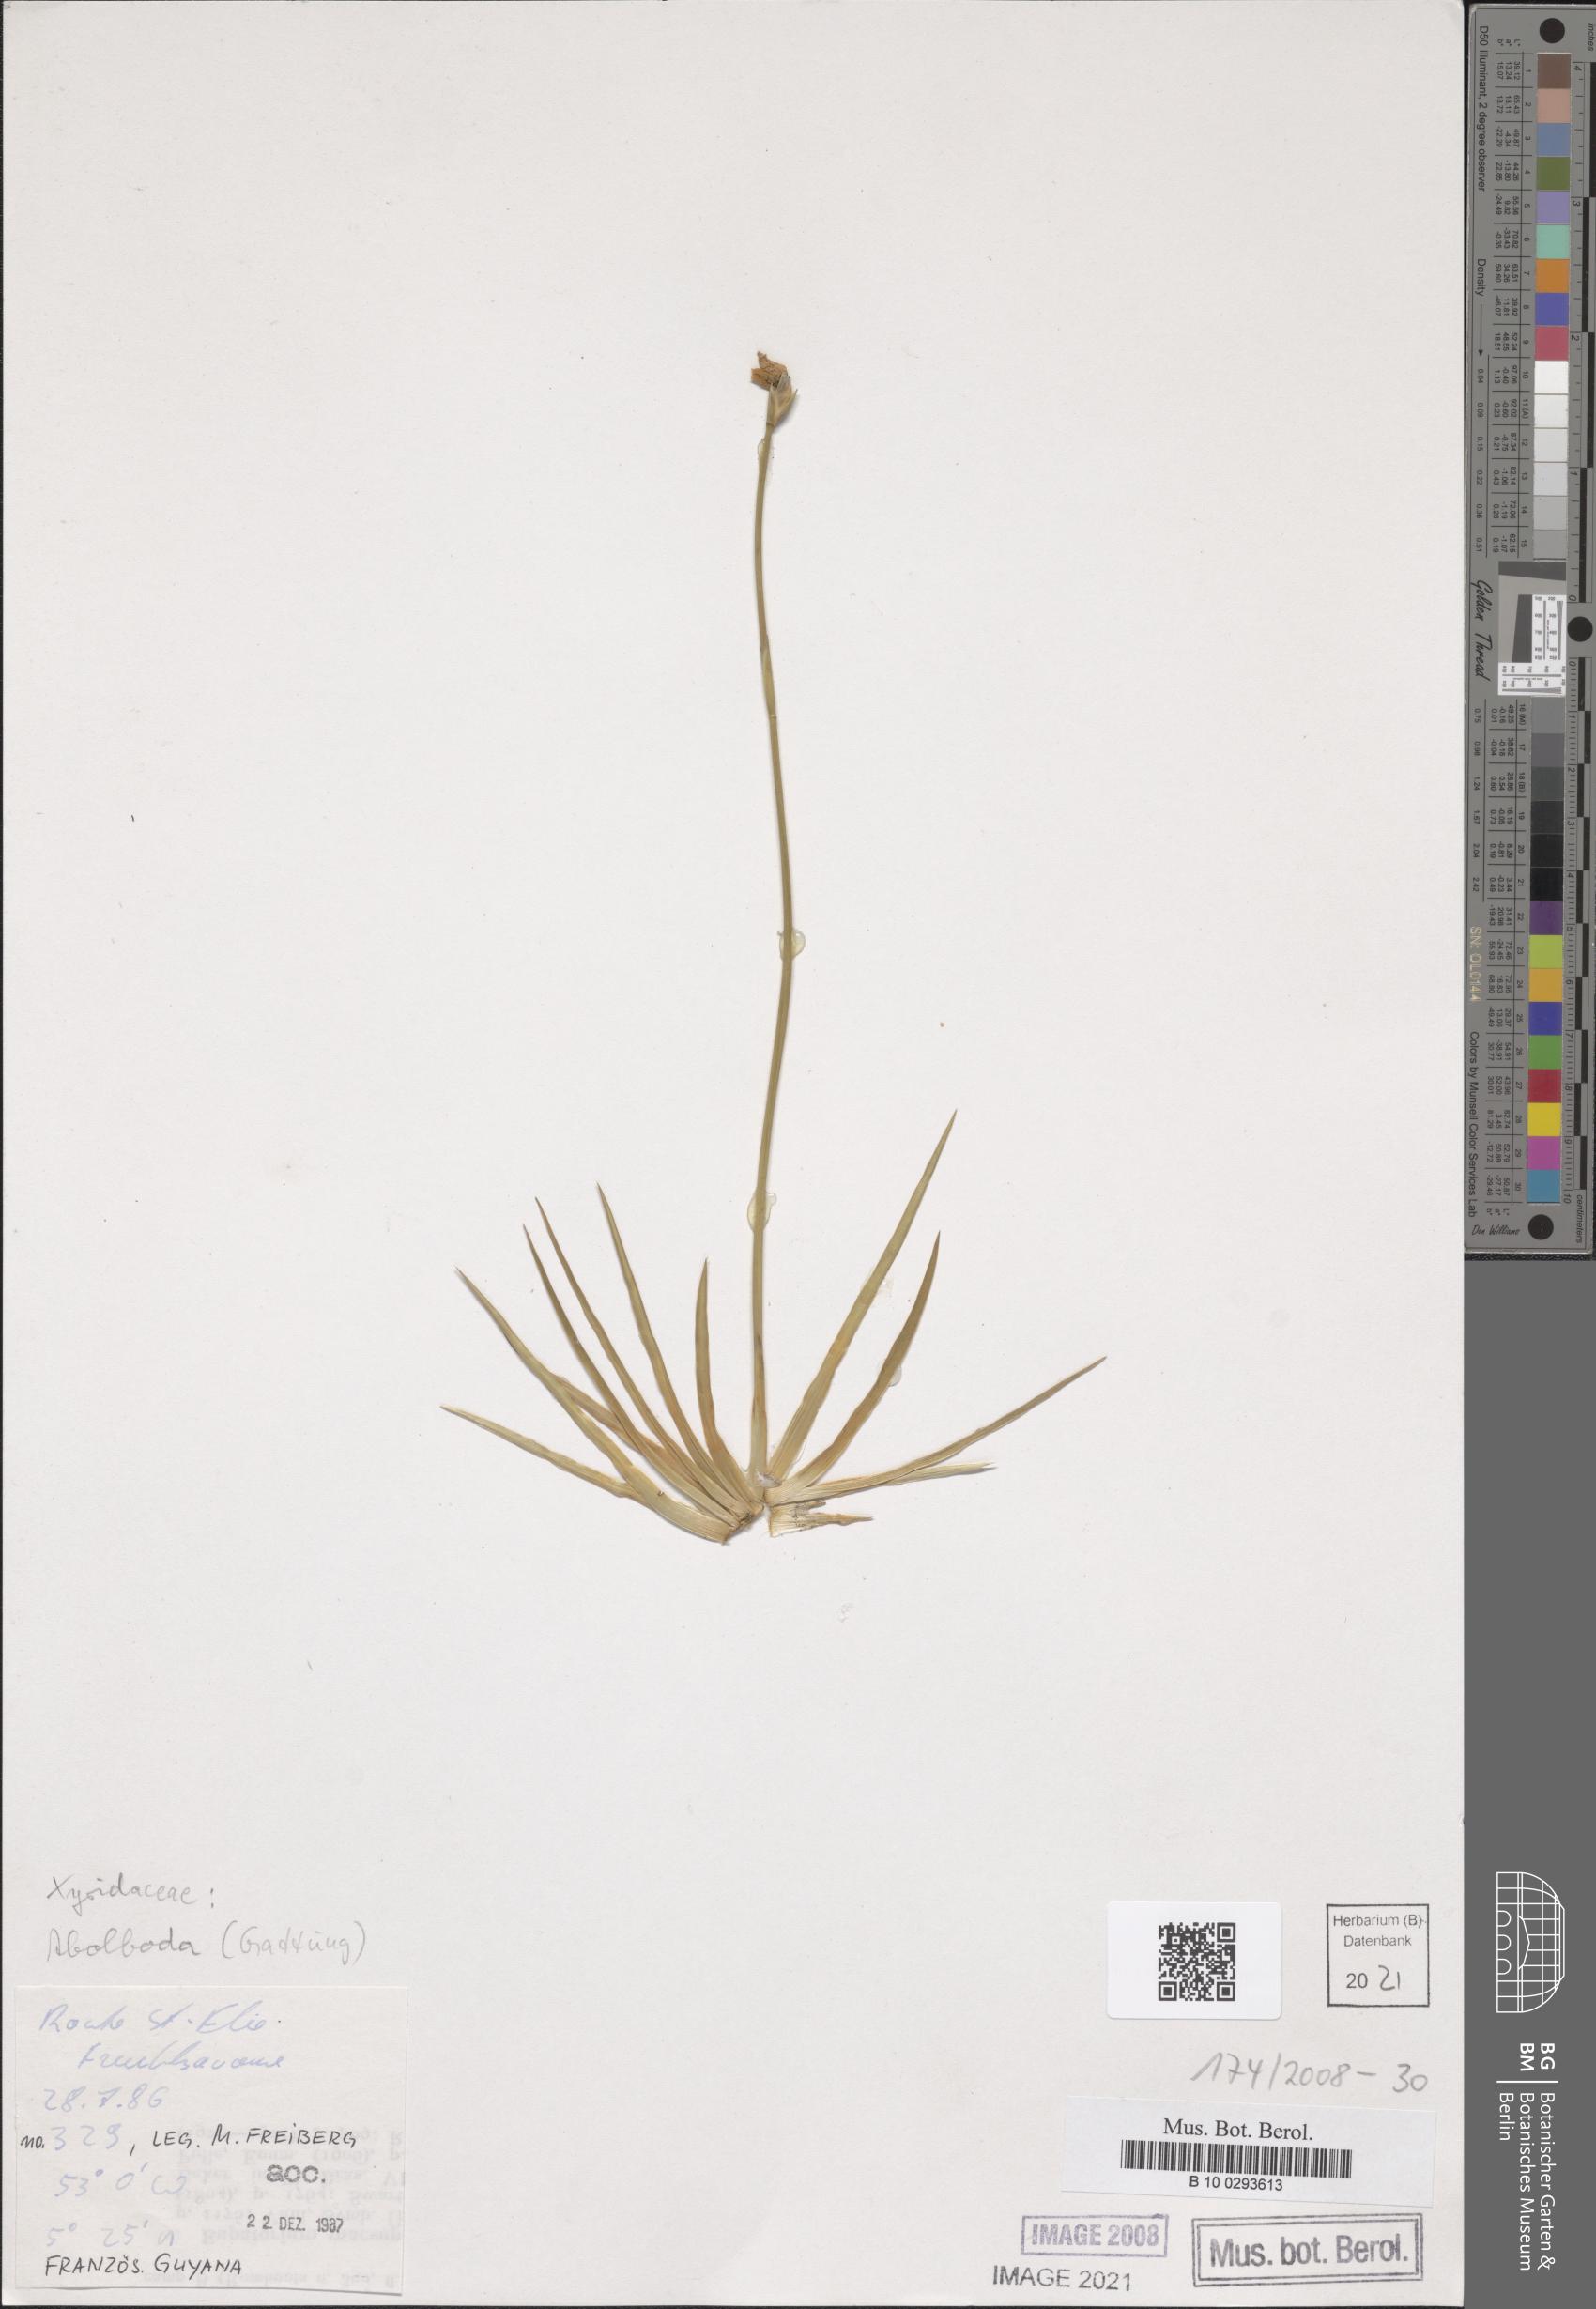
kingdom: Plantae
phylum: Tracheophyta
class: Liliopsida
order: Poales
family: Xyridaceae
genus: Abolboda
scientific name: Abolboda
